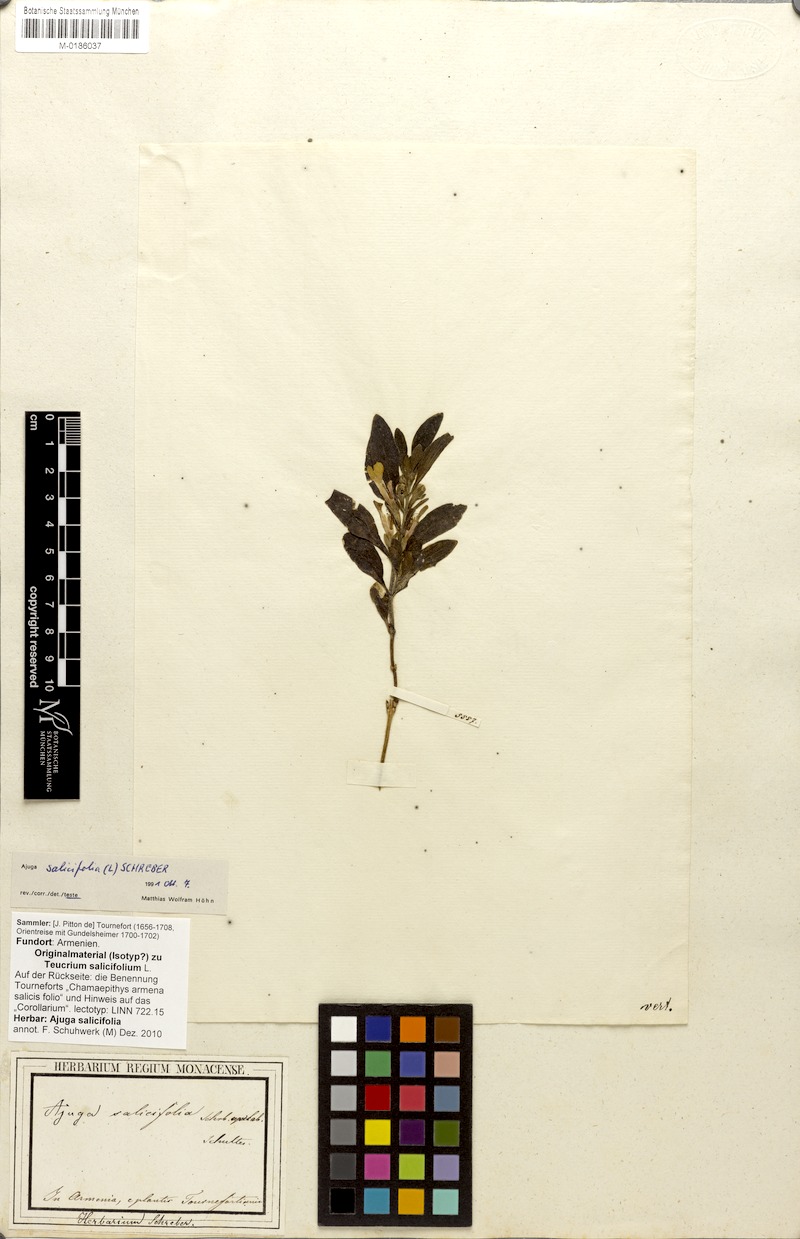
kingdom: Plantae
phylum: Tracheophyta
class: Magnoliopsida
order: Lamiales
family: Lamiaceae
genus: Ajuga
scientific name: Ajuga salicifolia
